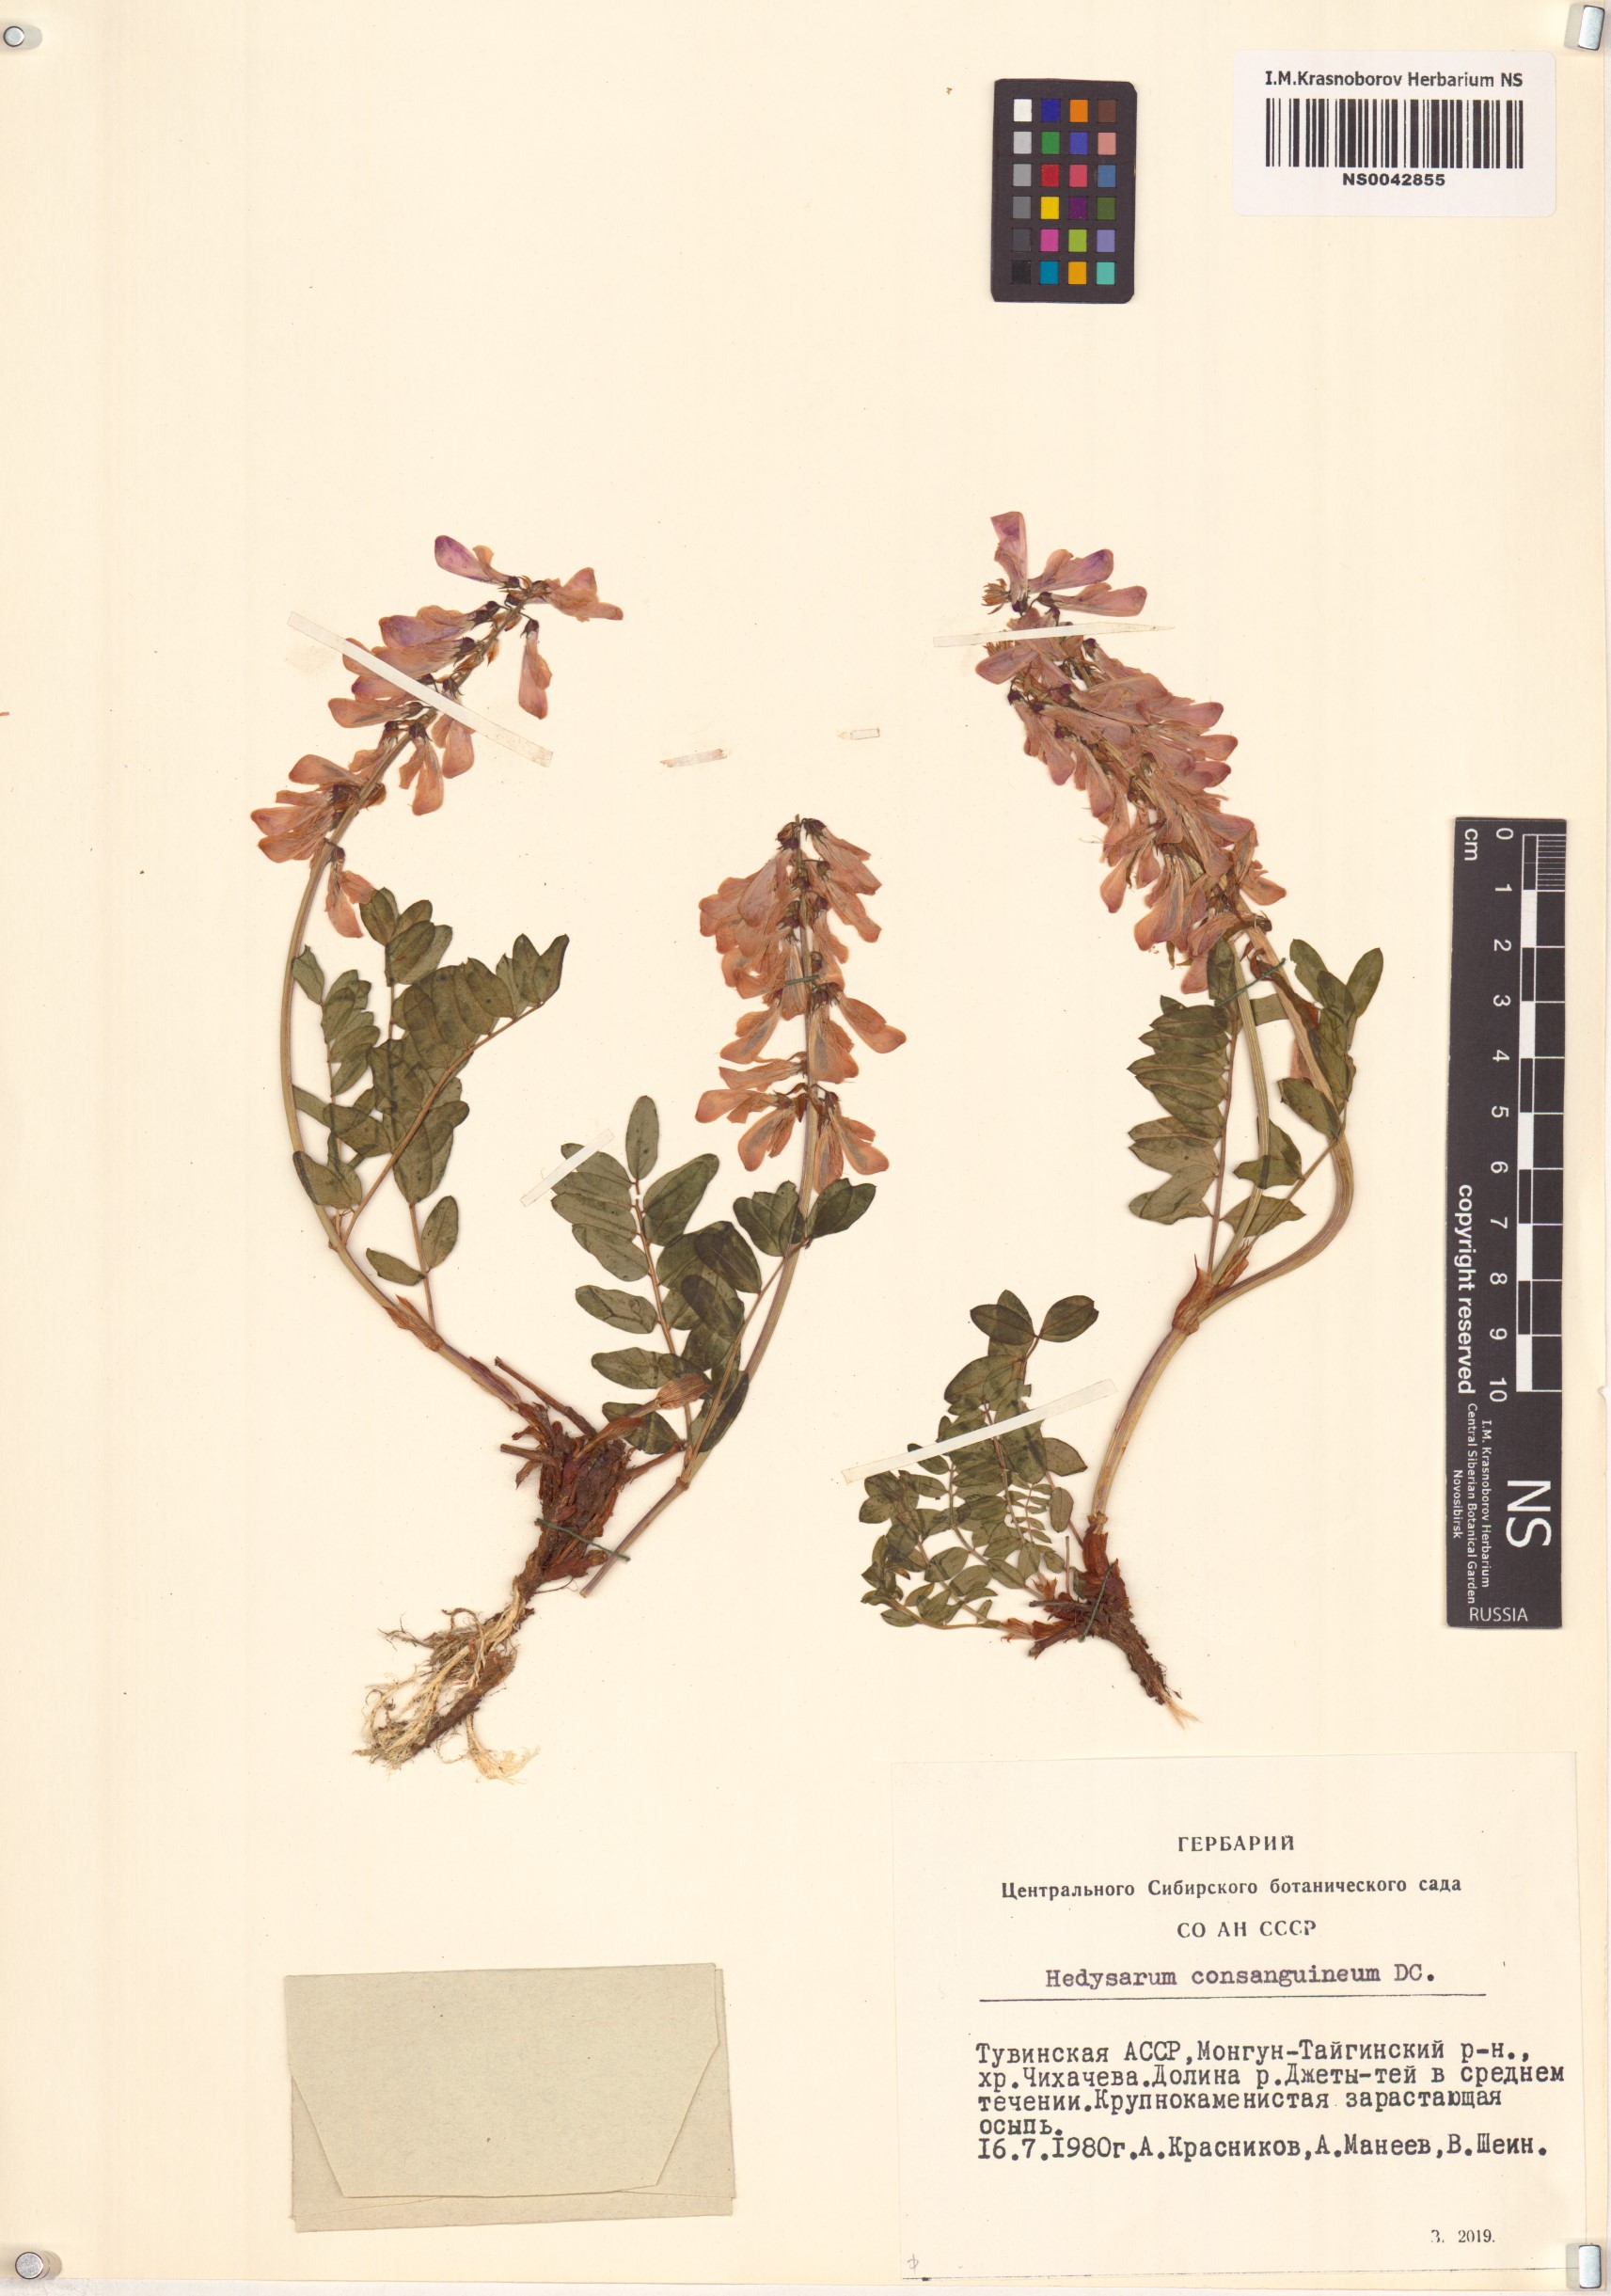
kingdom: Plantae
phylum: Tracheophyta
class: Magnoliopsida
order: Fabales
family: Fabaceae
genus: Hedysarum
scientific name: Hedysarum consanguineum
